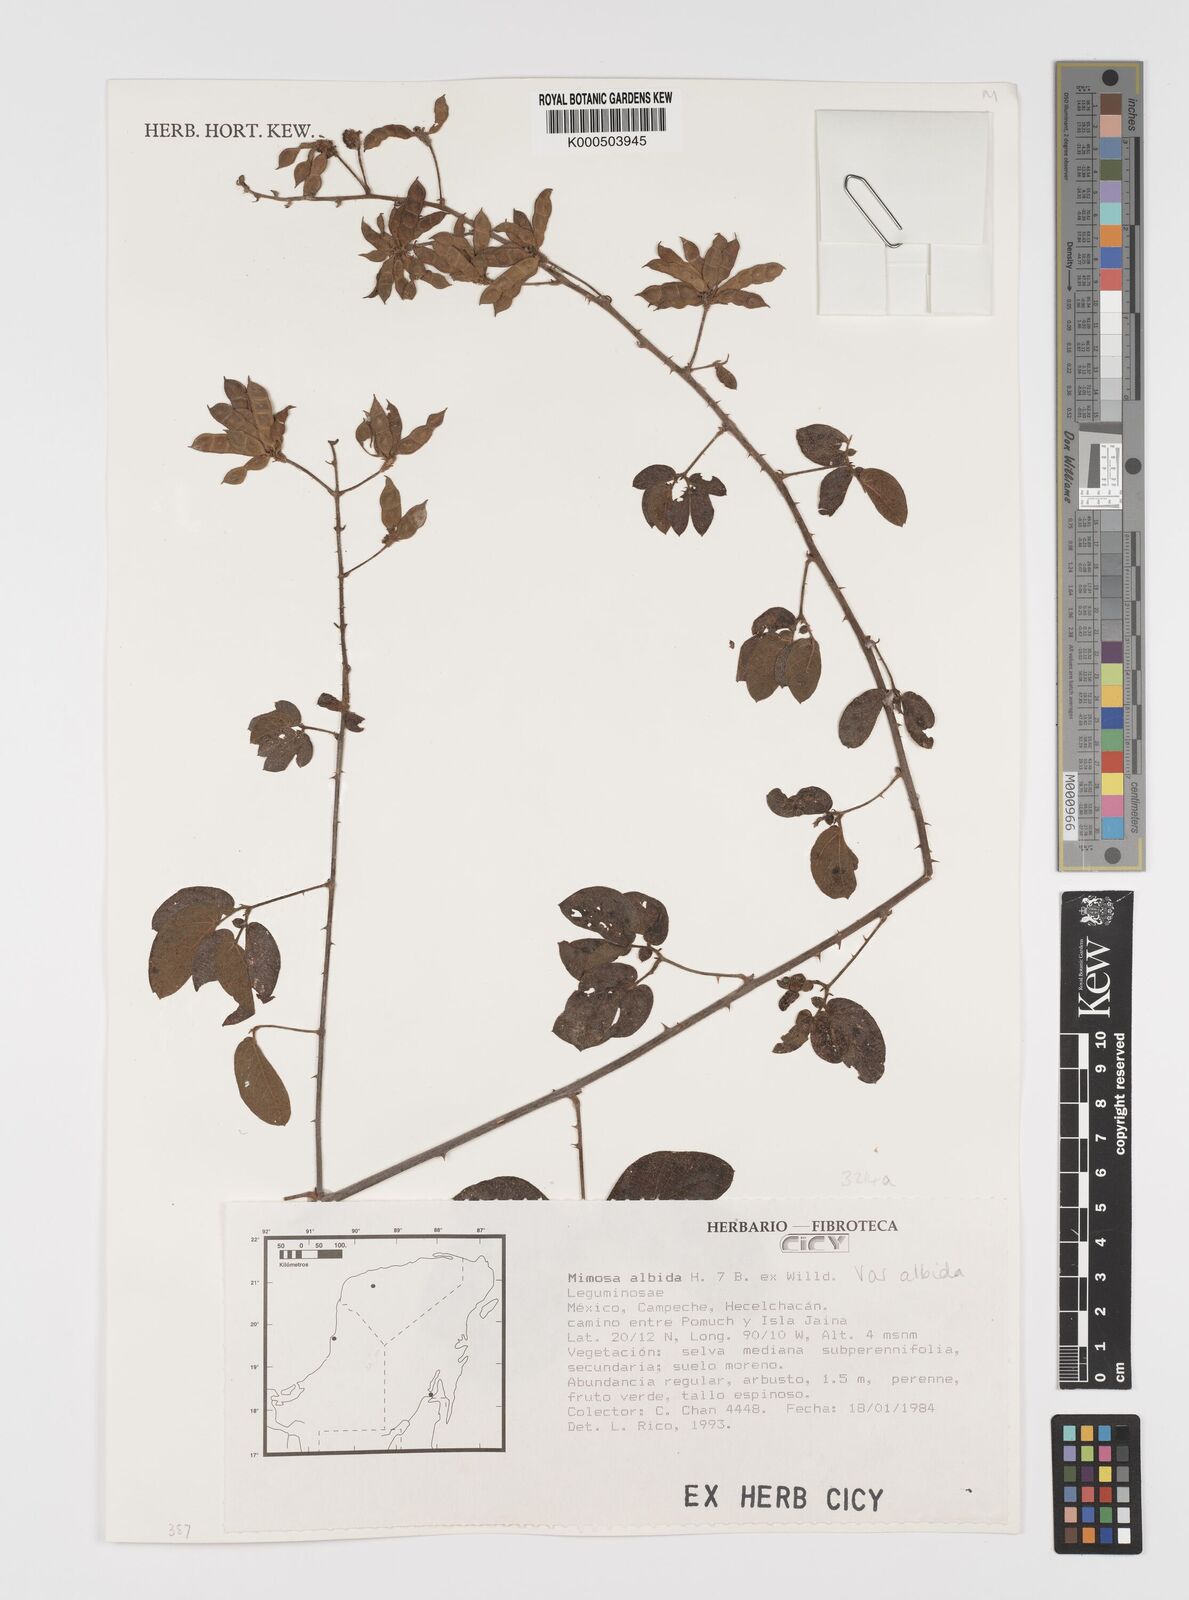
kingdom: Plantae
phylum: Tracheophyta
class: Magnoliopsida
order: Fabales
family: Fabaceae
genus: Mimosa
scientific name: Mimosa albida
